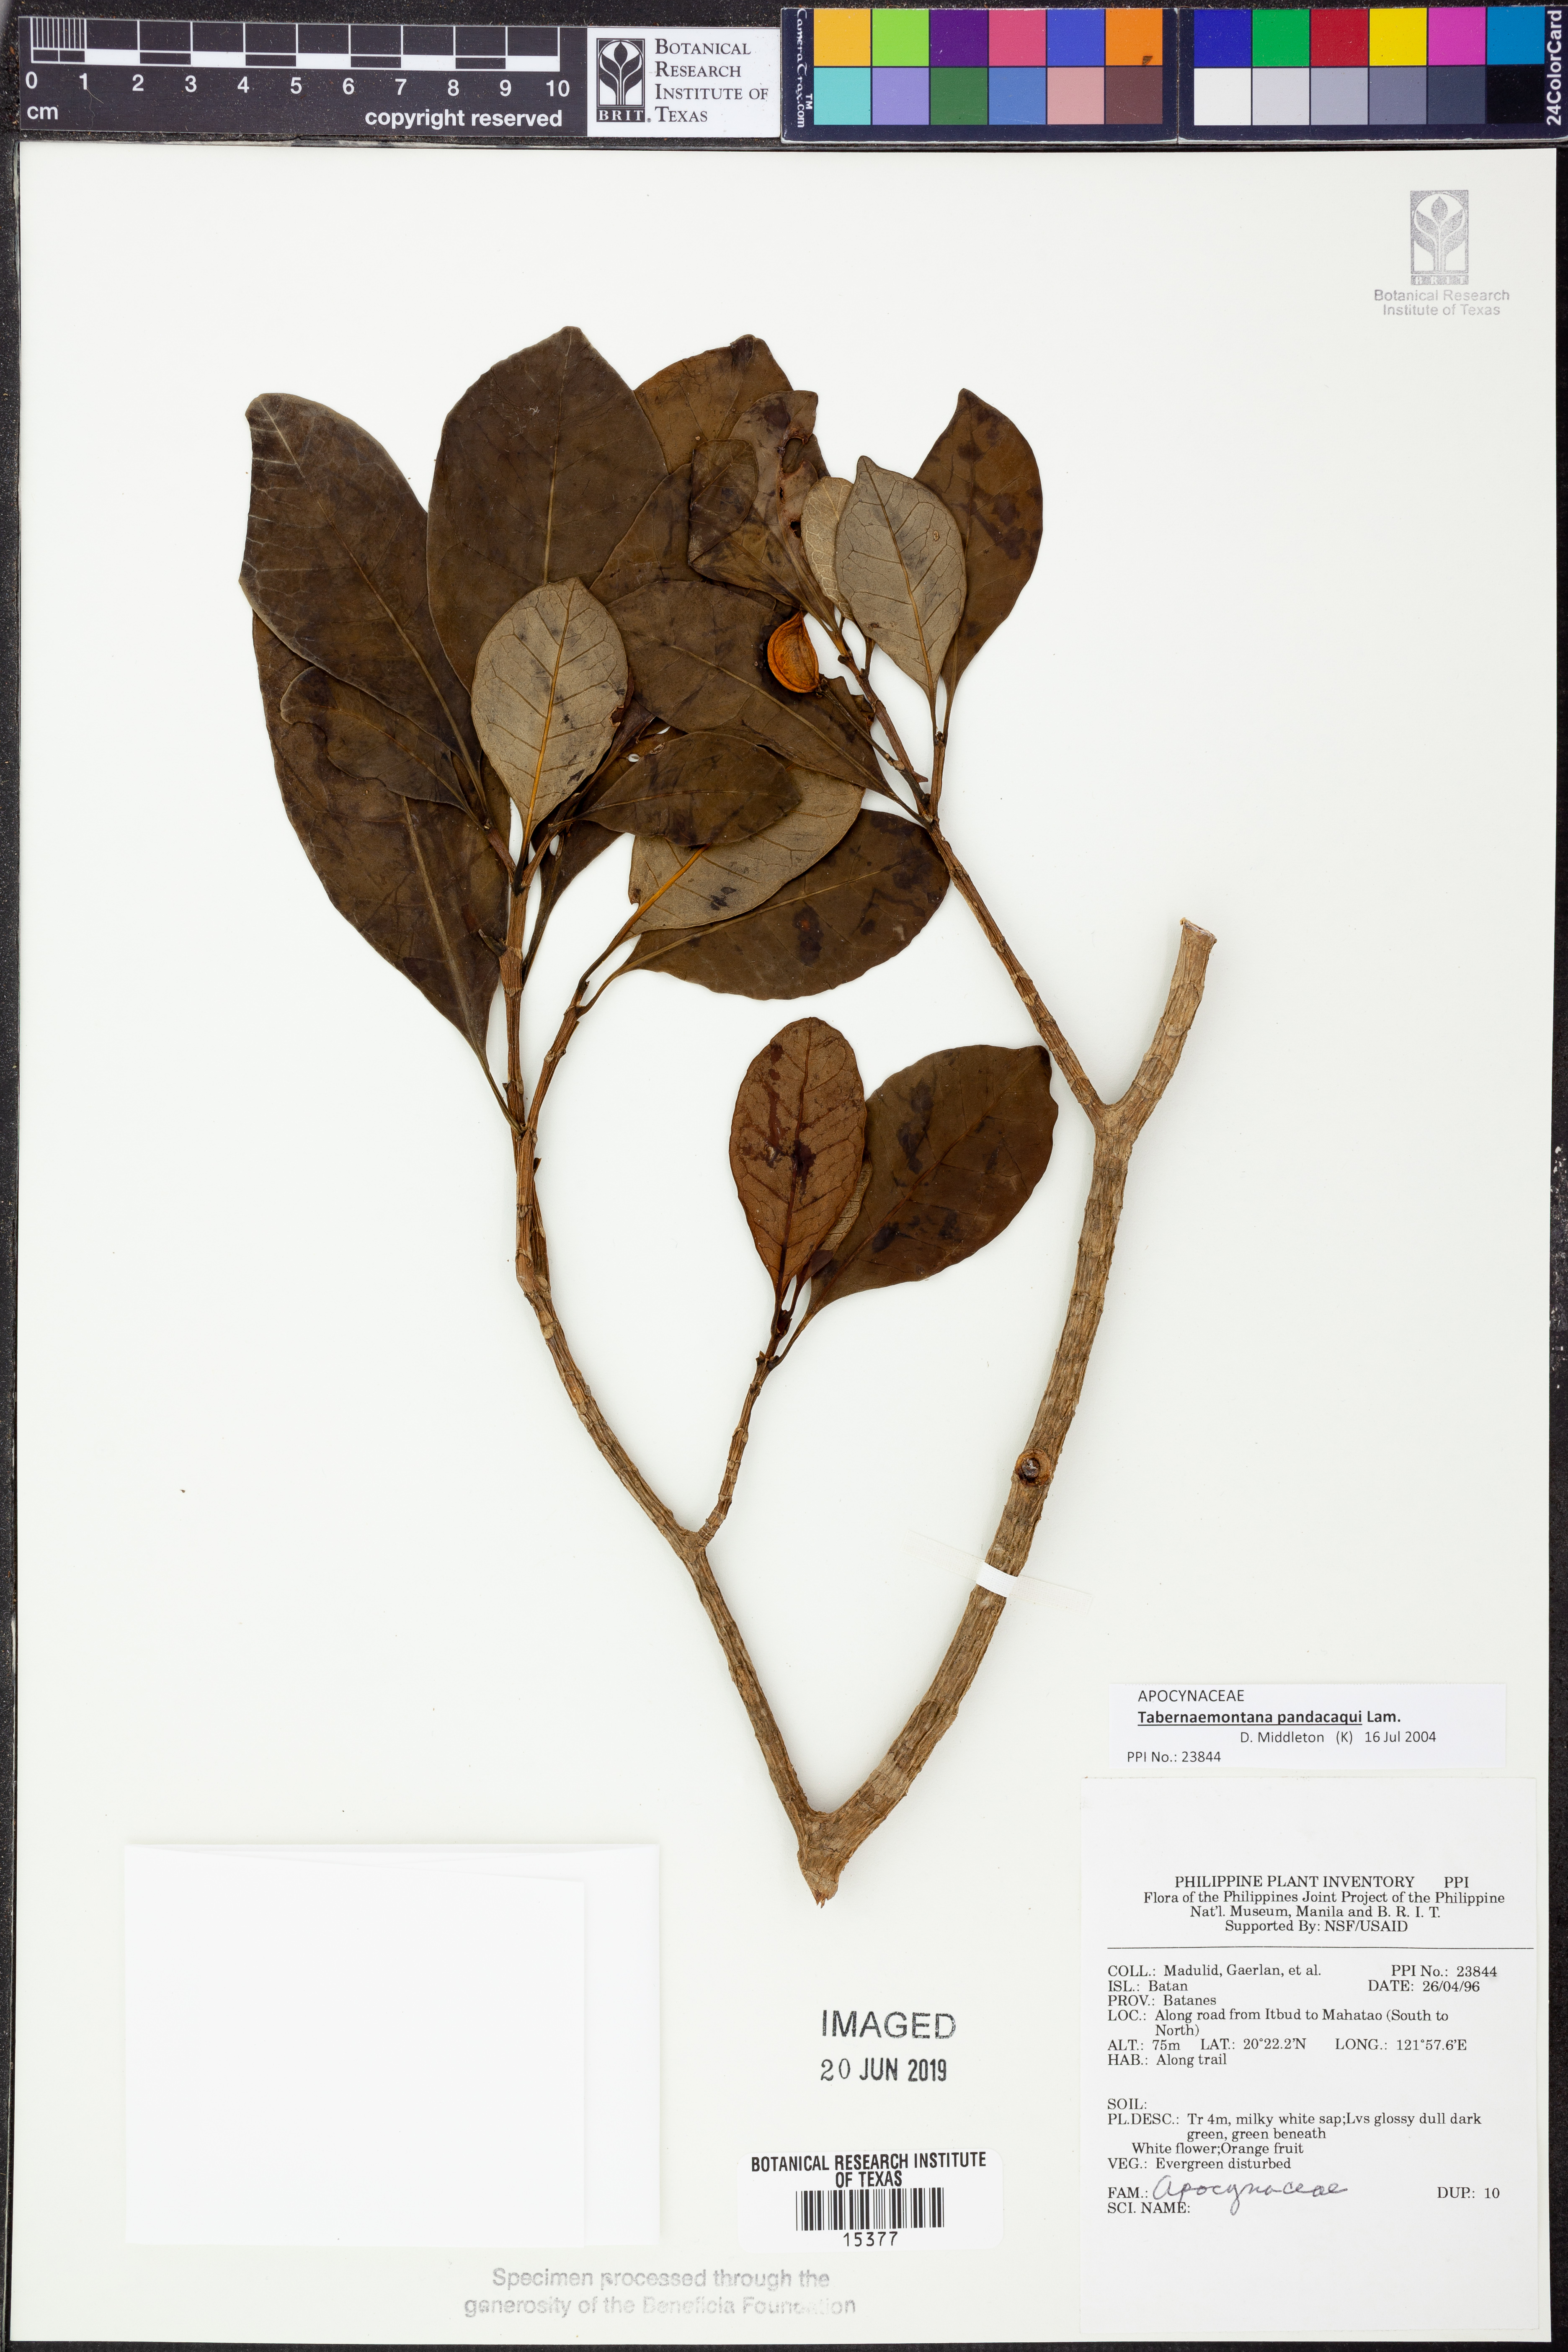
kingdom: Plantae
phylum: Tracheophyta
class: Magnoliopsida
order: Gentianales
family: Apocynaceae
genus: Tabernaemontana
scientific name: Tabernaemontana pandacaqui
